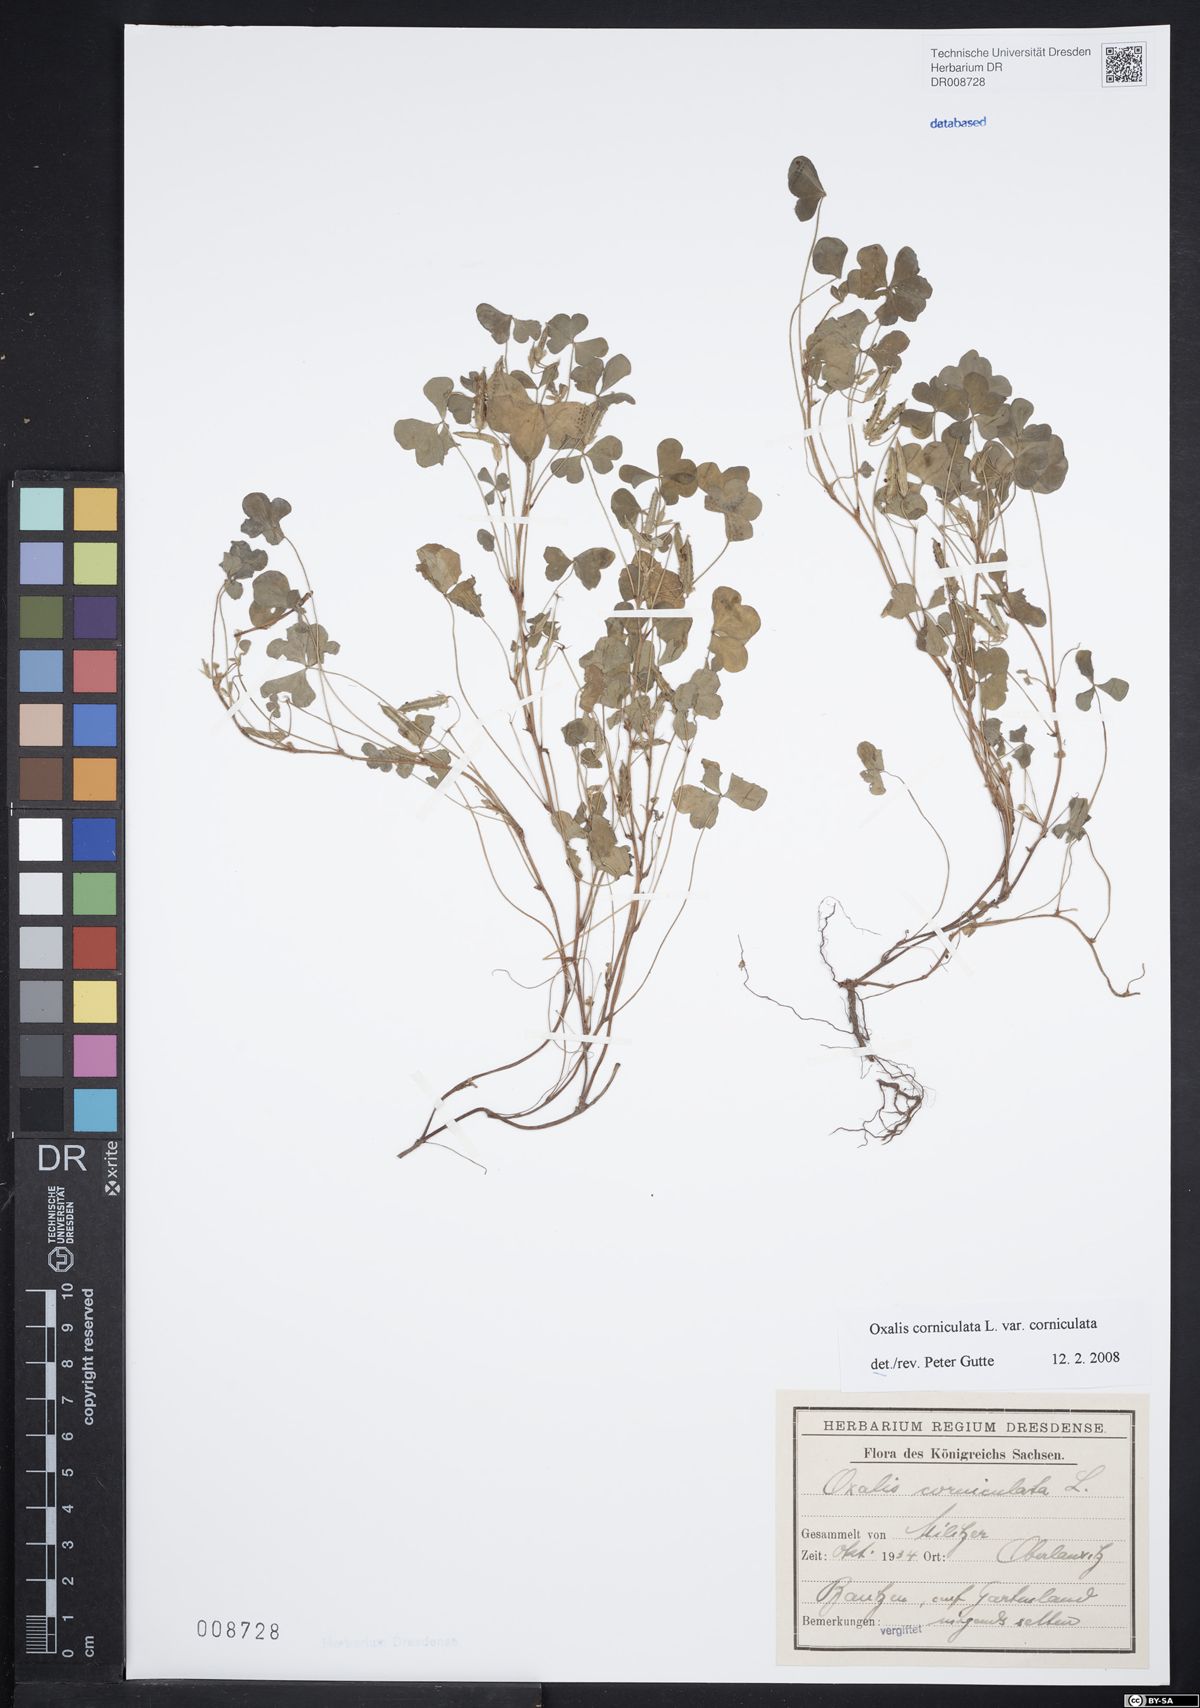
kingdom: Plantae
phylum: Tracheophyta
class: Magnoliopsida
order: Oxalidales
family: Oxalidaceae
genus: Oxalis
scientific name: Oxalis corniculata
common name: Procumbent yellow-sorrel
